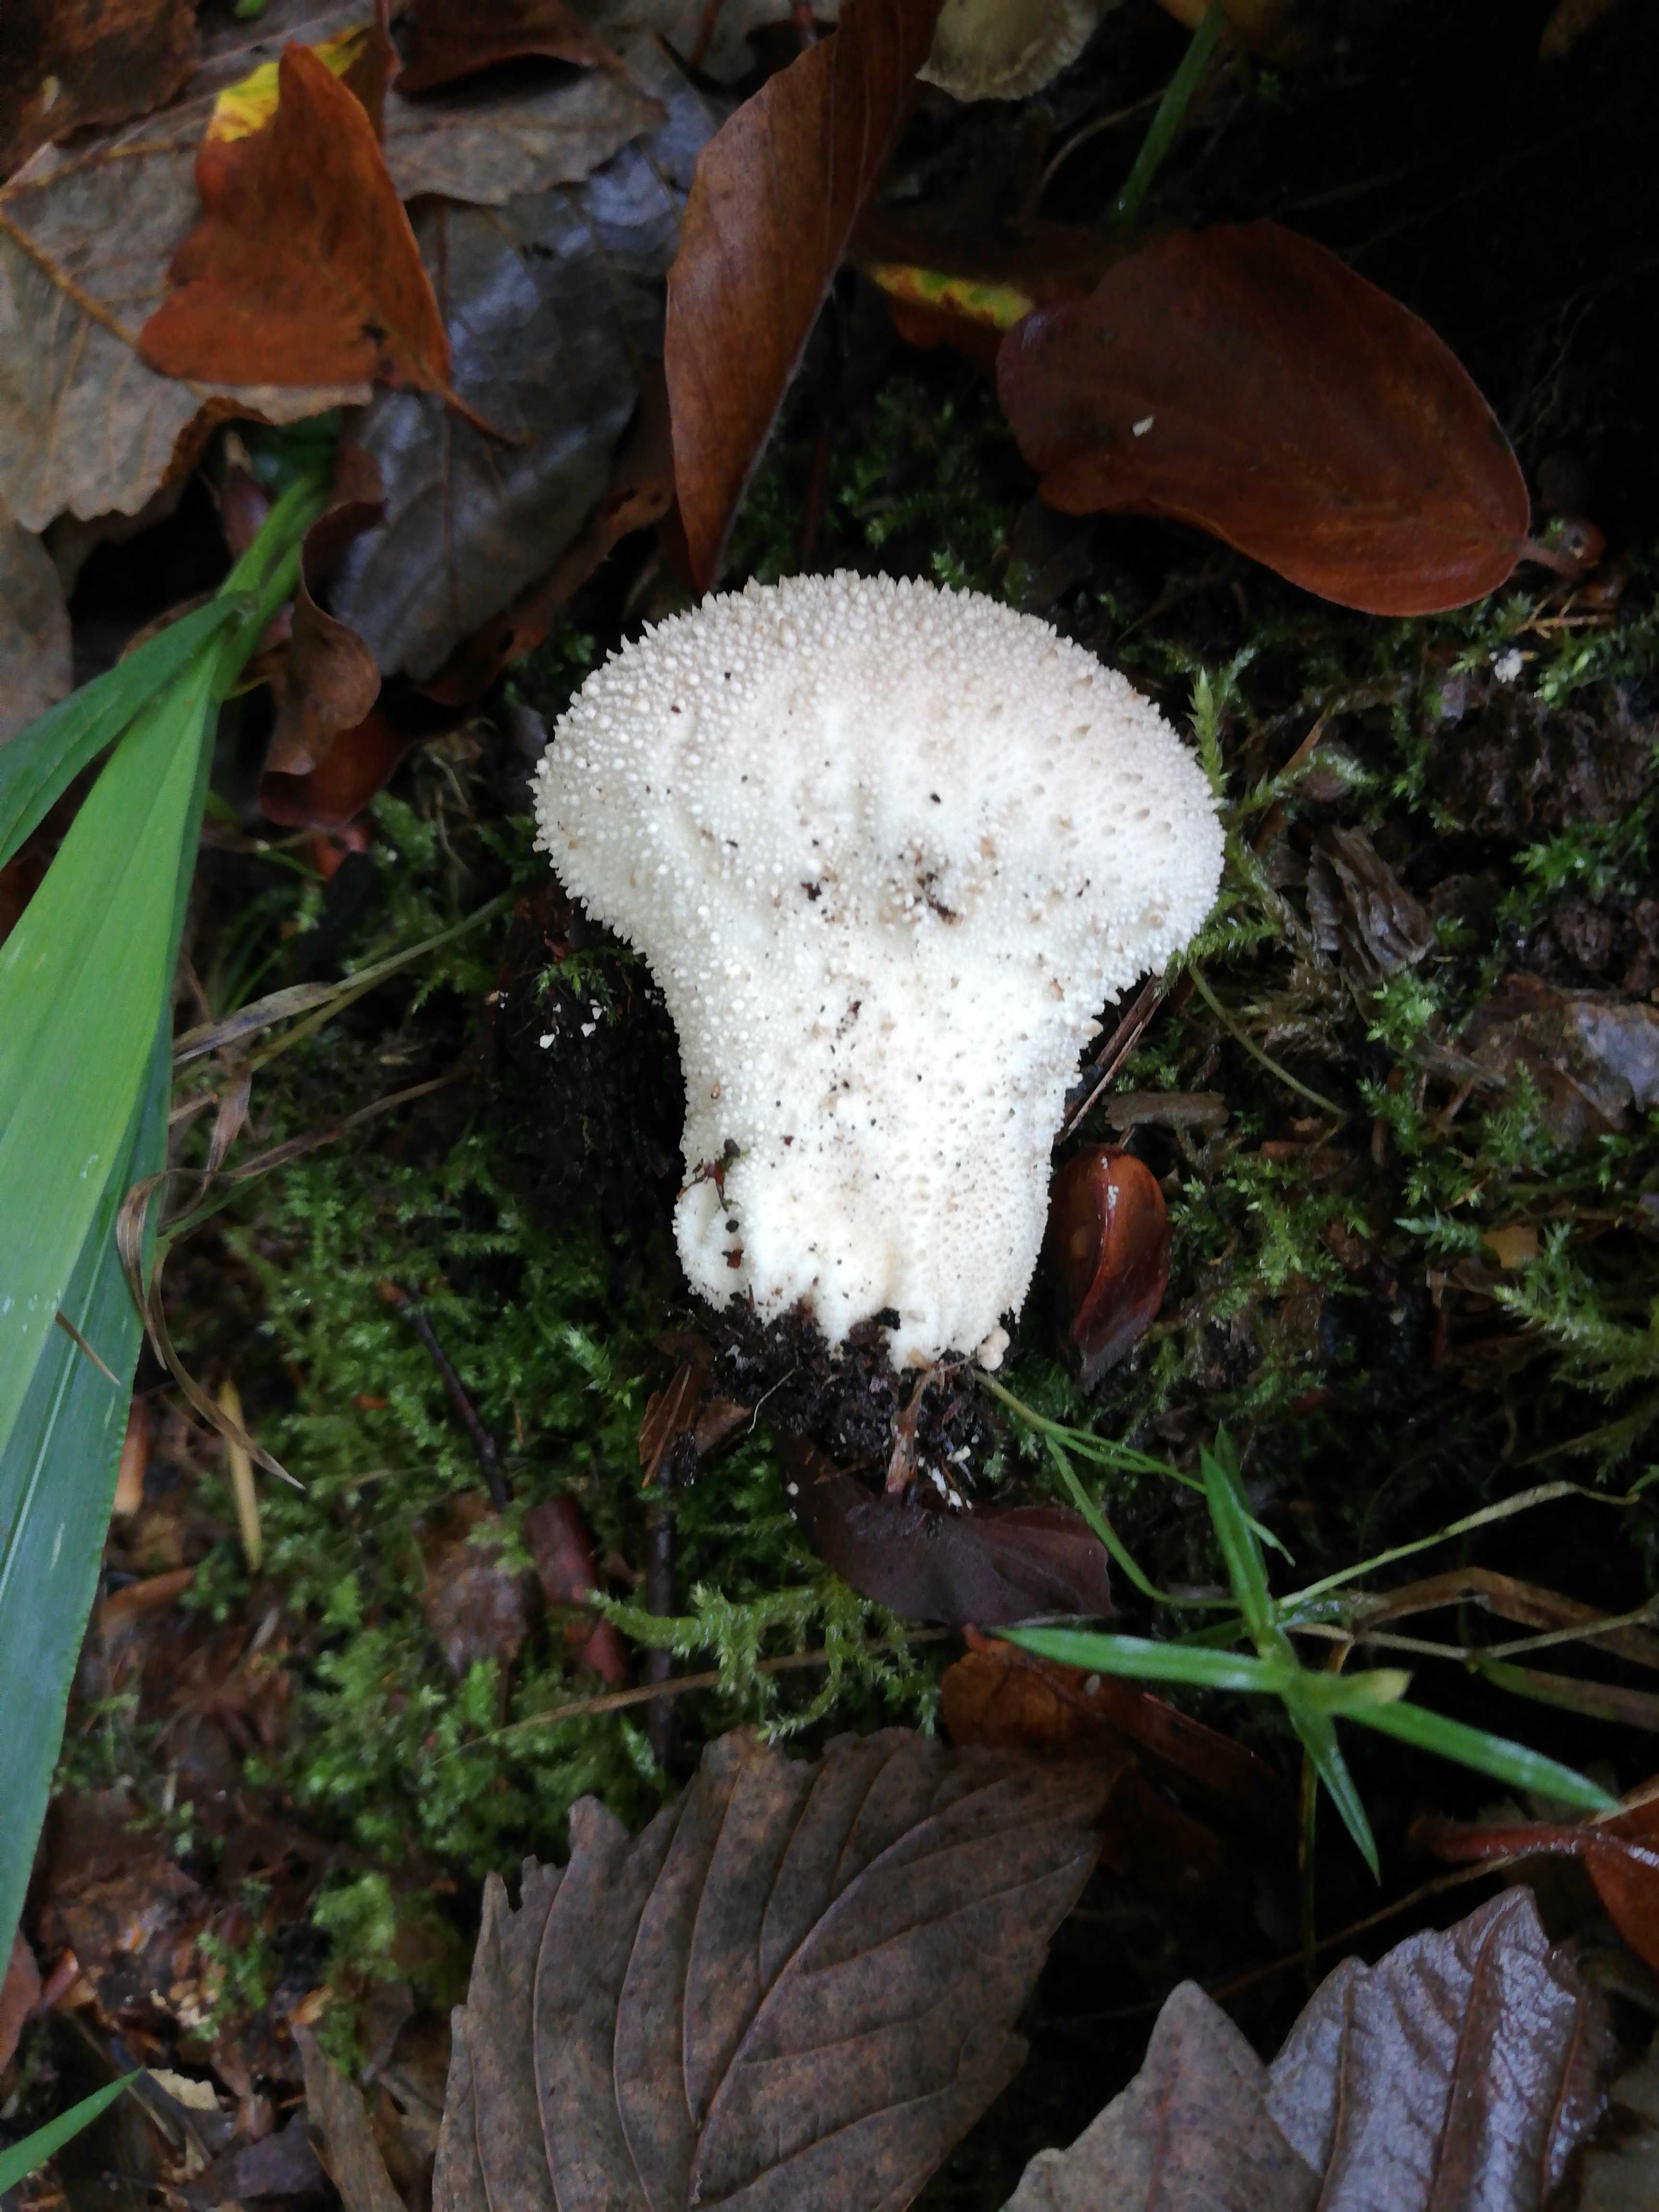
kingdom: Fungi
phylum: Basidiomycota
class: Agaricomycetes
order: Agaricales
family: Lycoperdaceae
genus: Lycoperdon
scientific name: Lycoperdon perlatum
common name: krystal-støvbold
